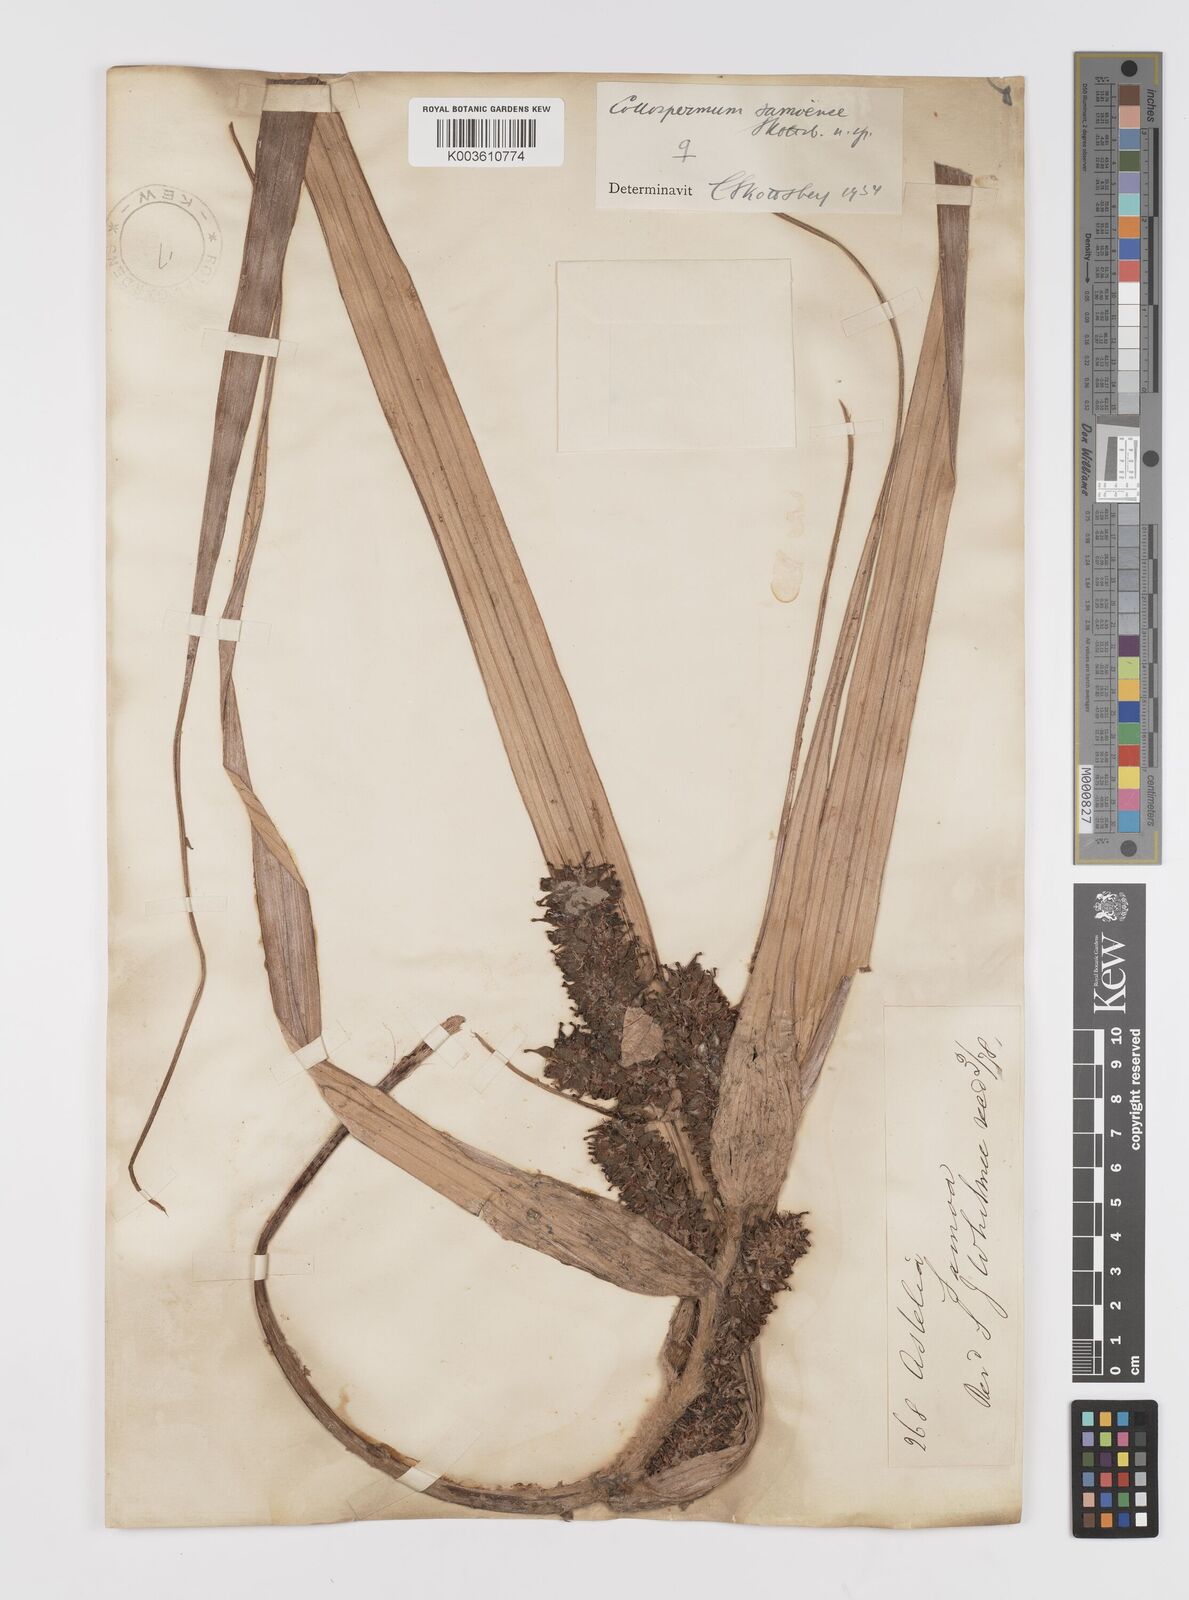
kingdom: Plantae
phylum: Tracheophyta
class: Liliopsida
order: Asparagales
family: Asteliaceae
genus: Astelia
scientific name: Astelia samoense
